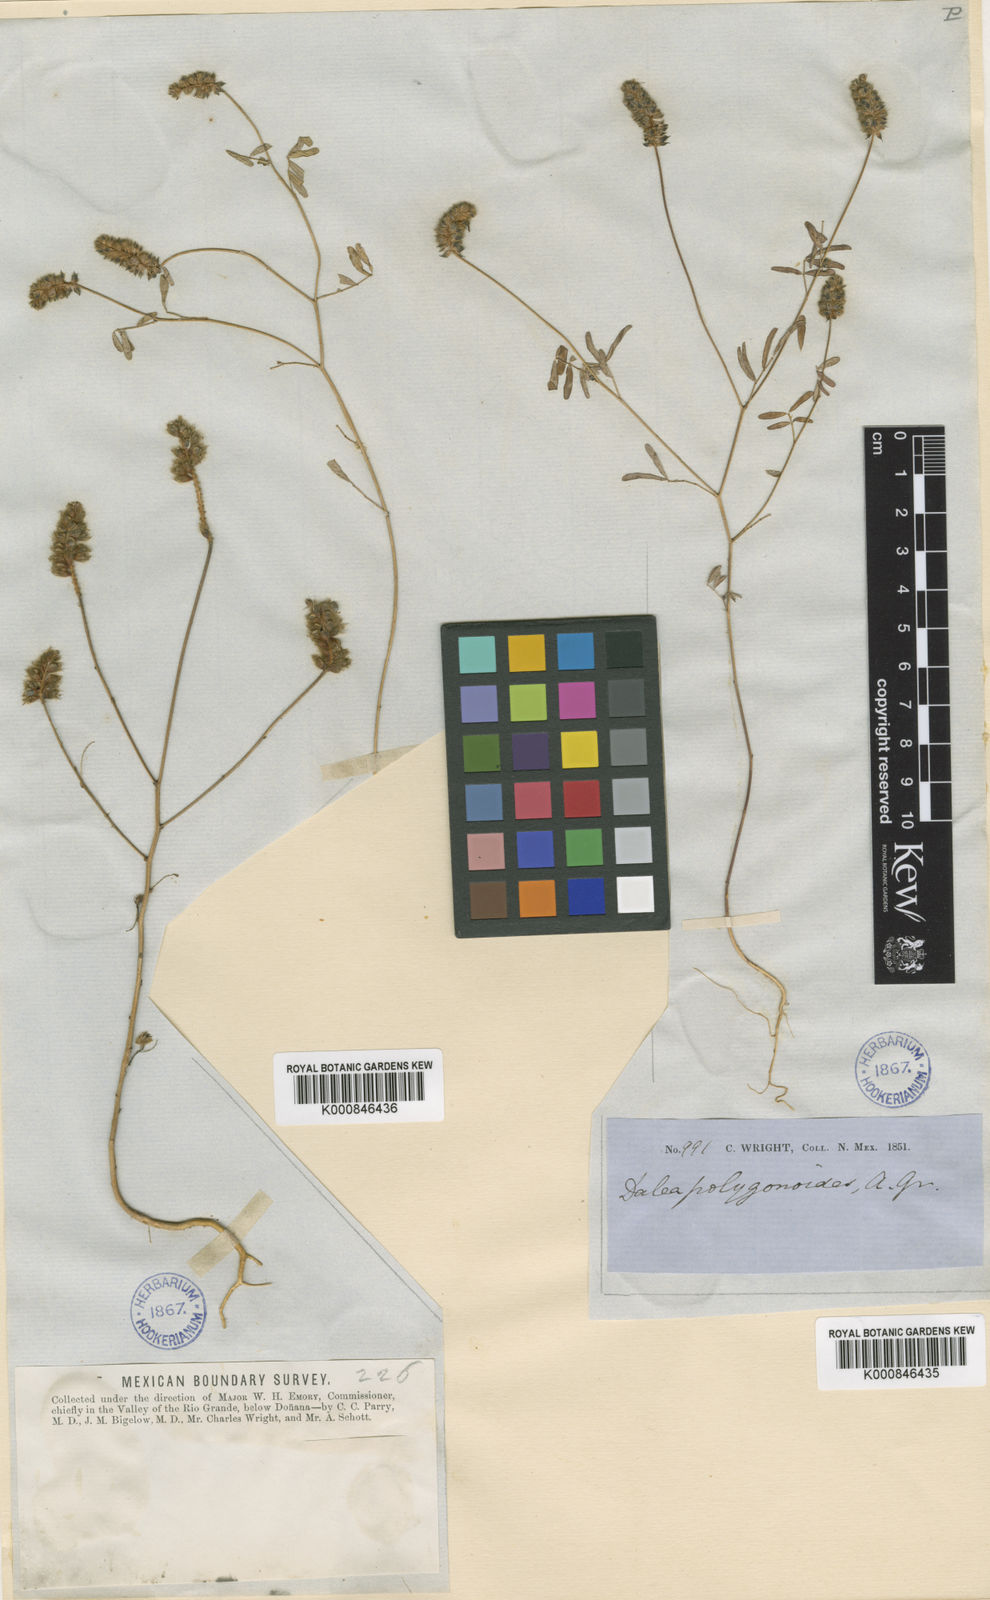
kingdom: Plantae
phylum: Tracheophyta
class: Magnoliopsida
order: Fabales
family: Fabaceae
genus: Dalea
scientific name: Dalea polygonoides
